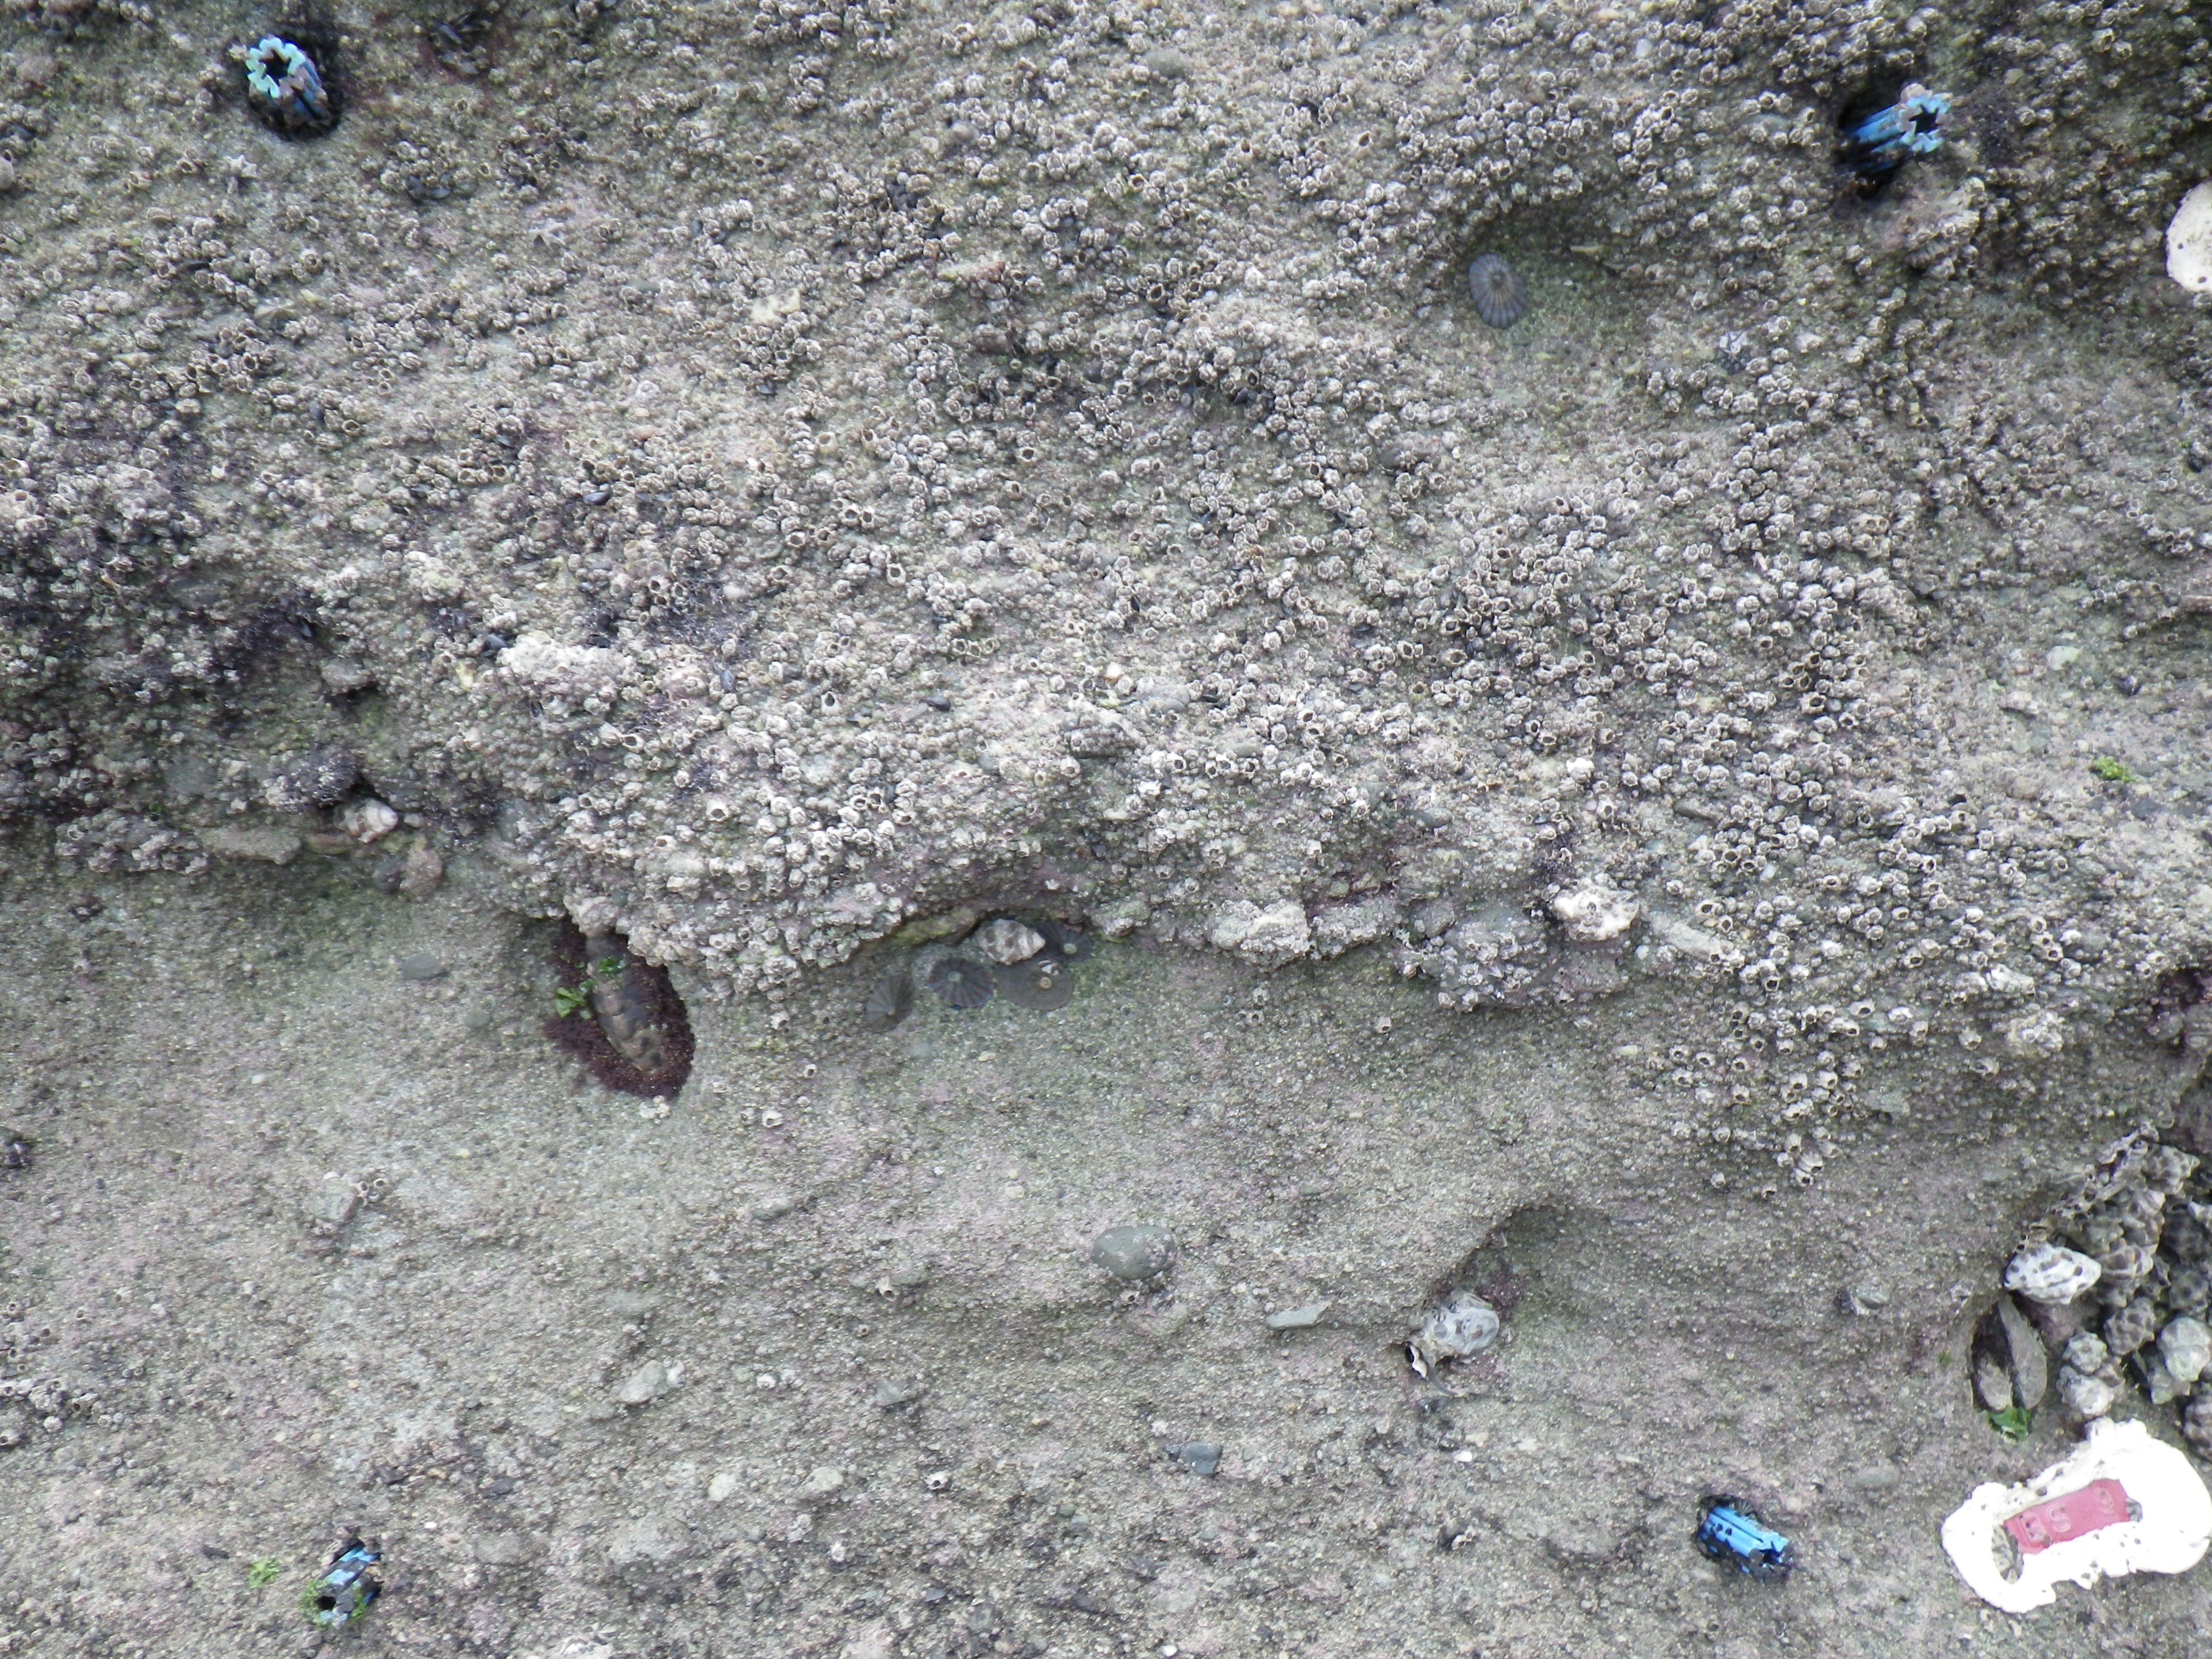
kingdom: Animalia
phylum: Arthropoda
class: Maxillopoda
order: Sessilia
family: Chthamalidae
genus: Chthamalus
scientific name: Chthamalus challengeri
